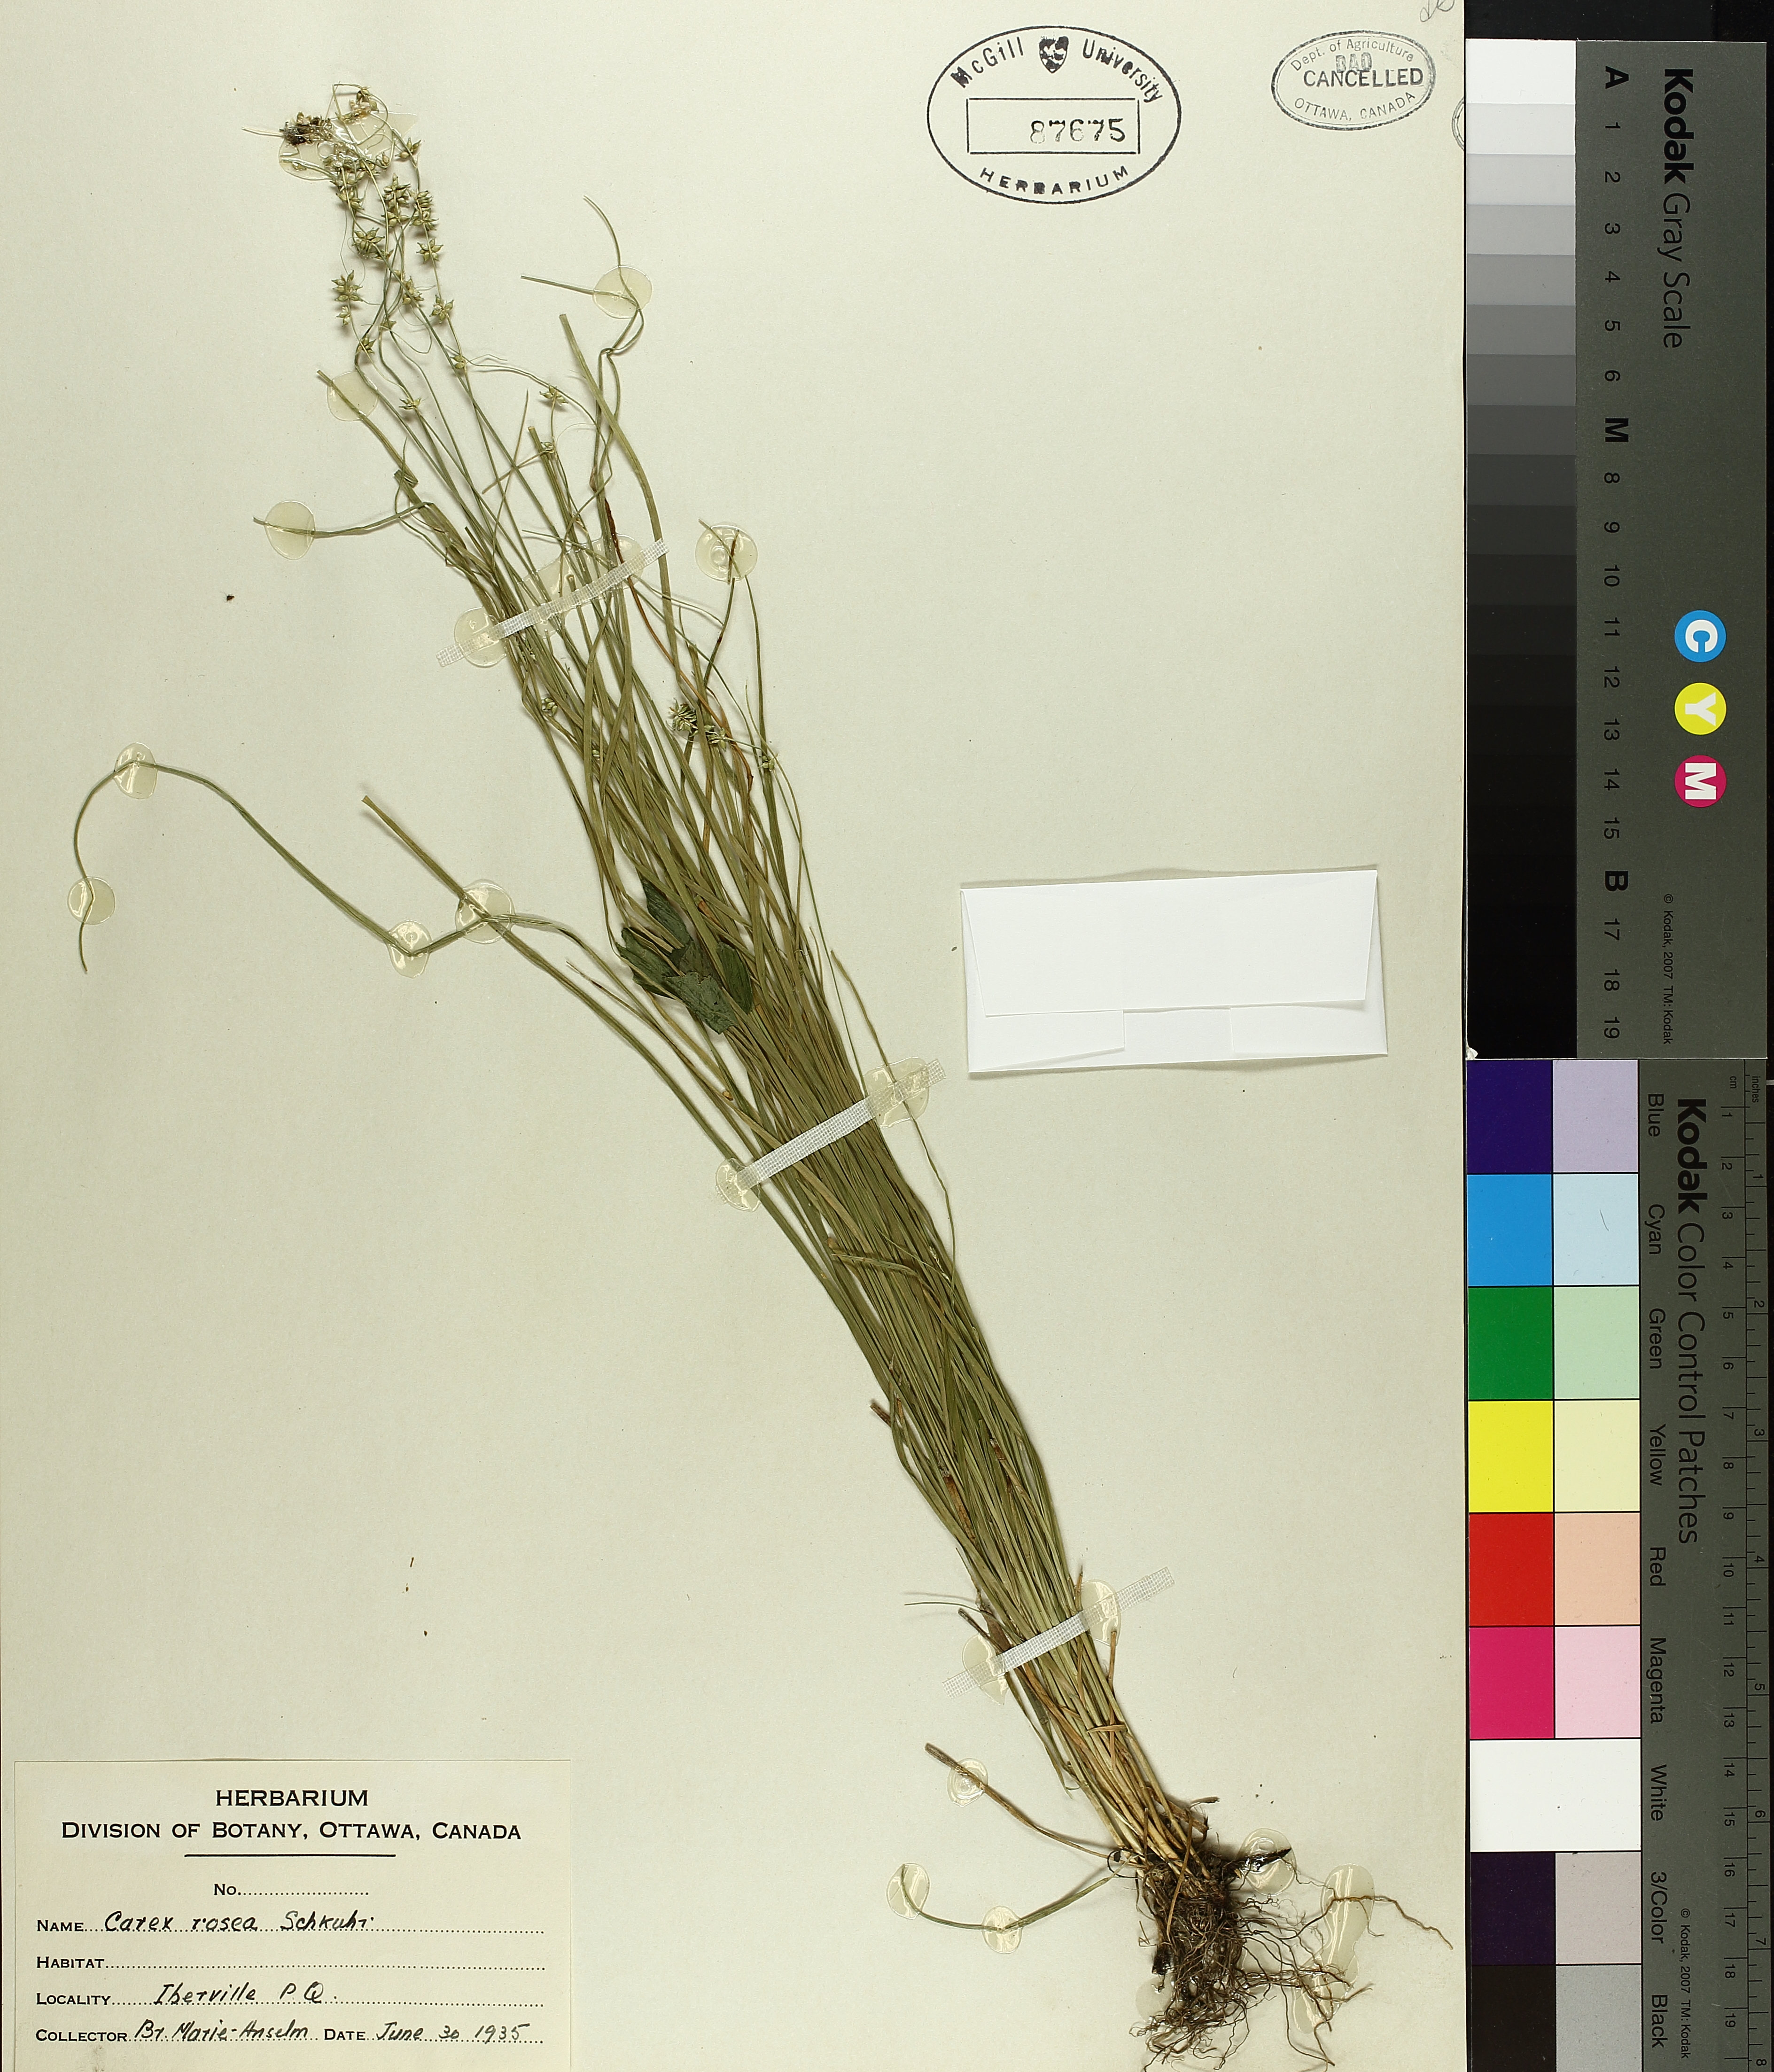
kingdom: Plantae
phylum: Tracheophyta
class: Liliopsida
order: Poales
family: Cyperaceae
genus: Carex
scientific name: Carex rosea
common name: Curly-styled wood sedge
